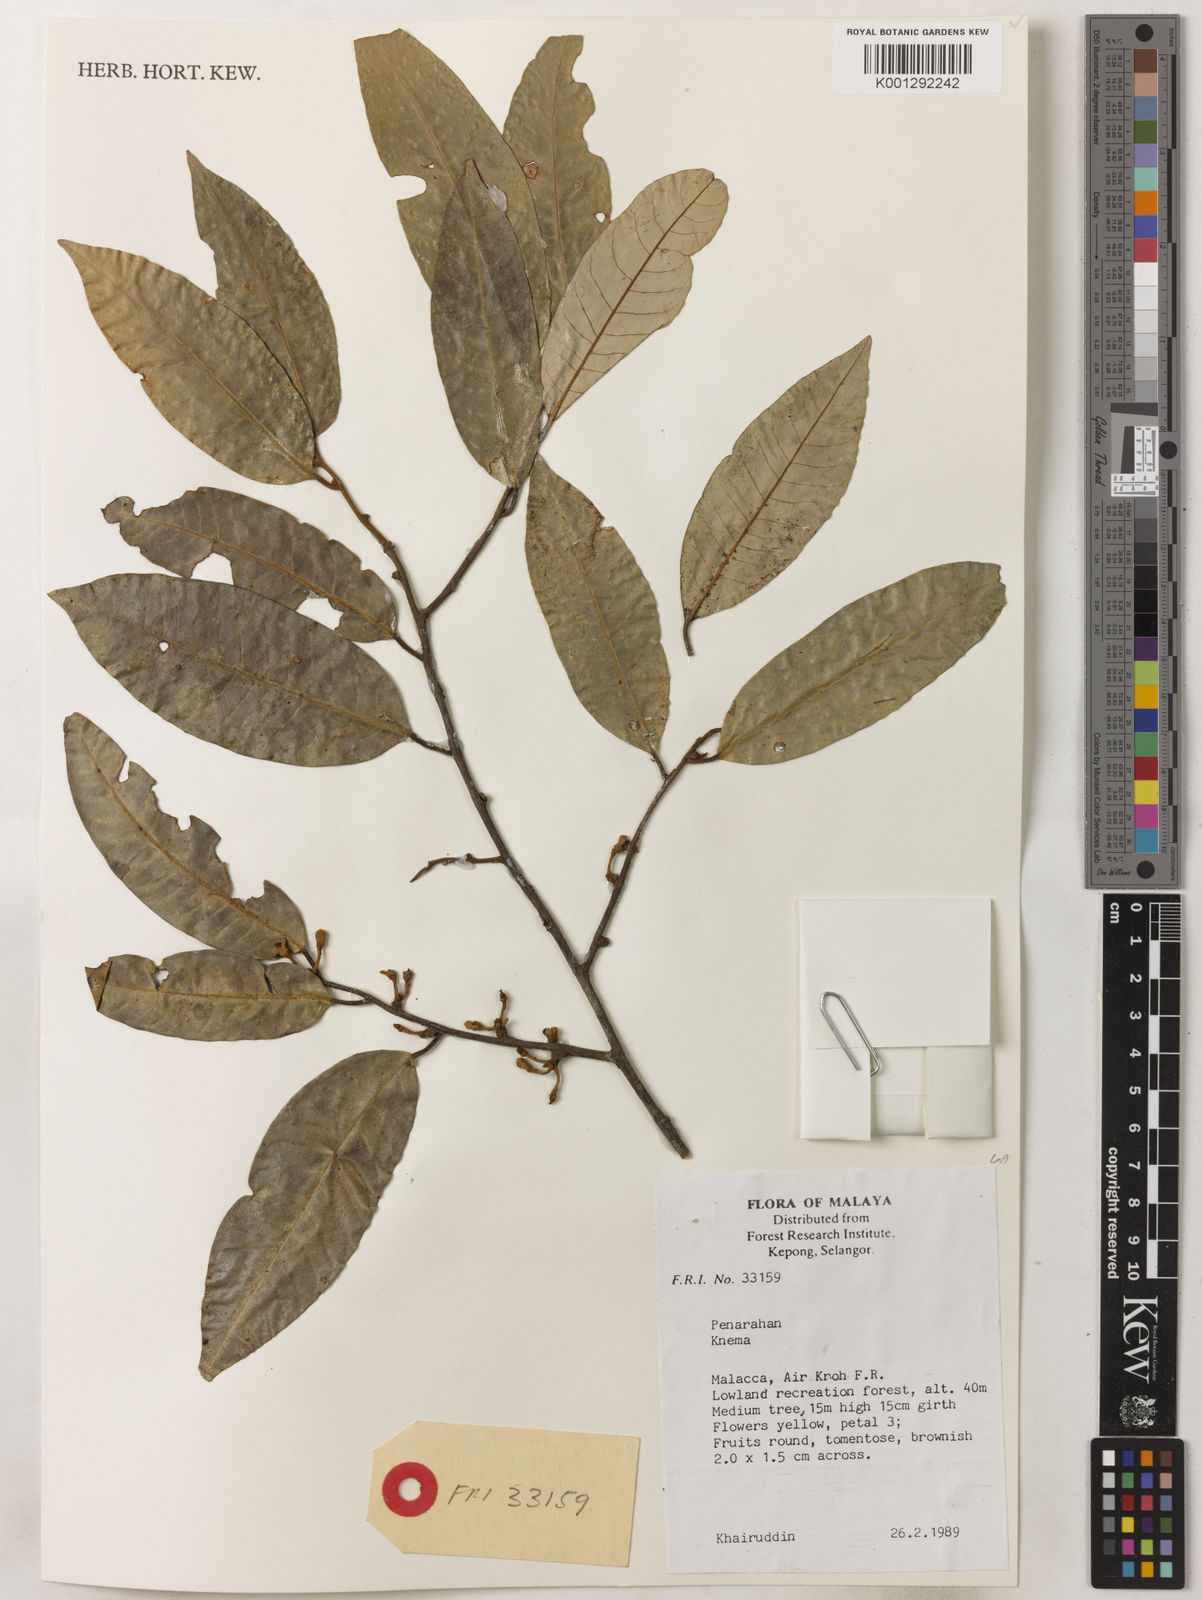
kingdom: Plantae
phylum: Tracheophyta
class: Magnoliopsida
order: Magnoliales
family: Myristicaceae
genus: Knema
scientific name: Knema
